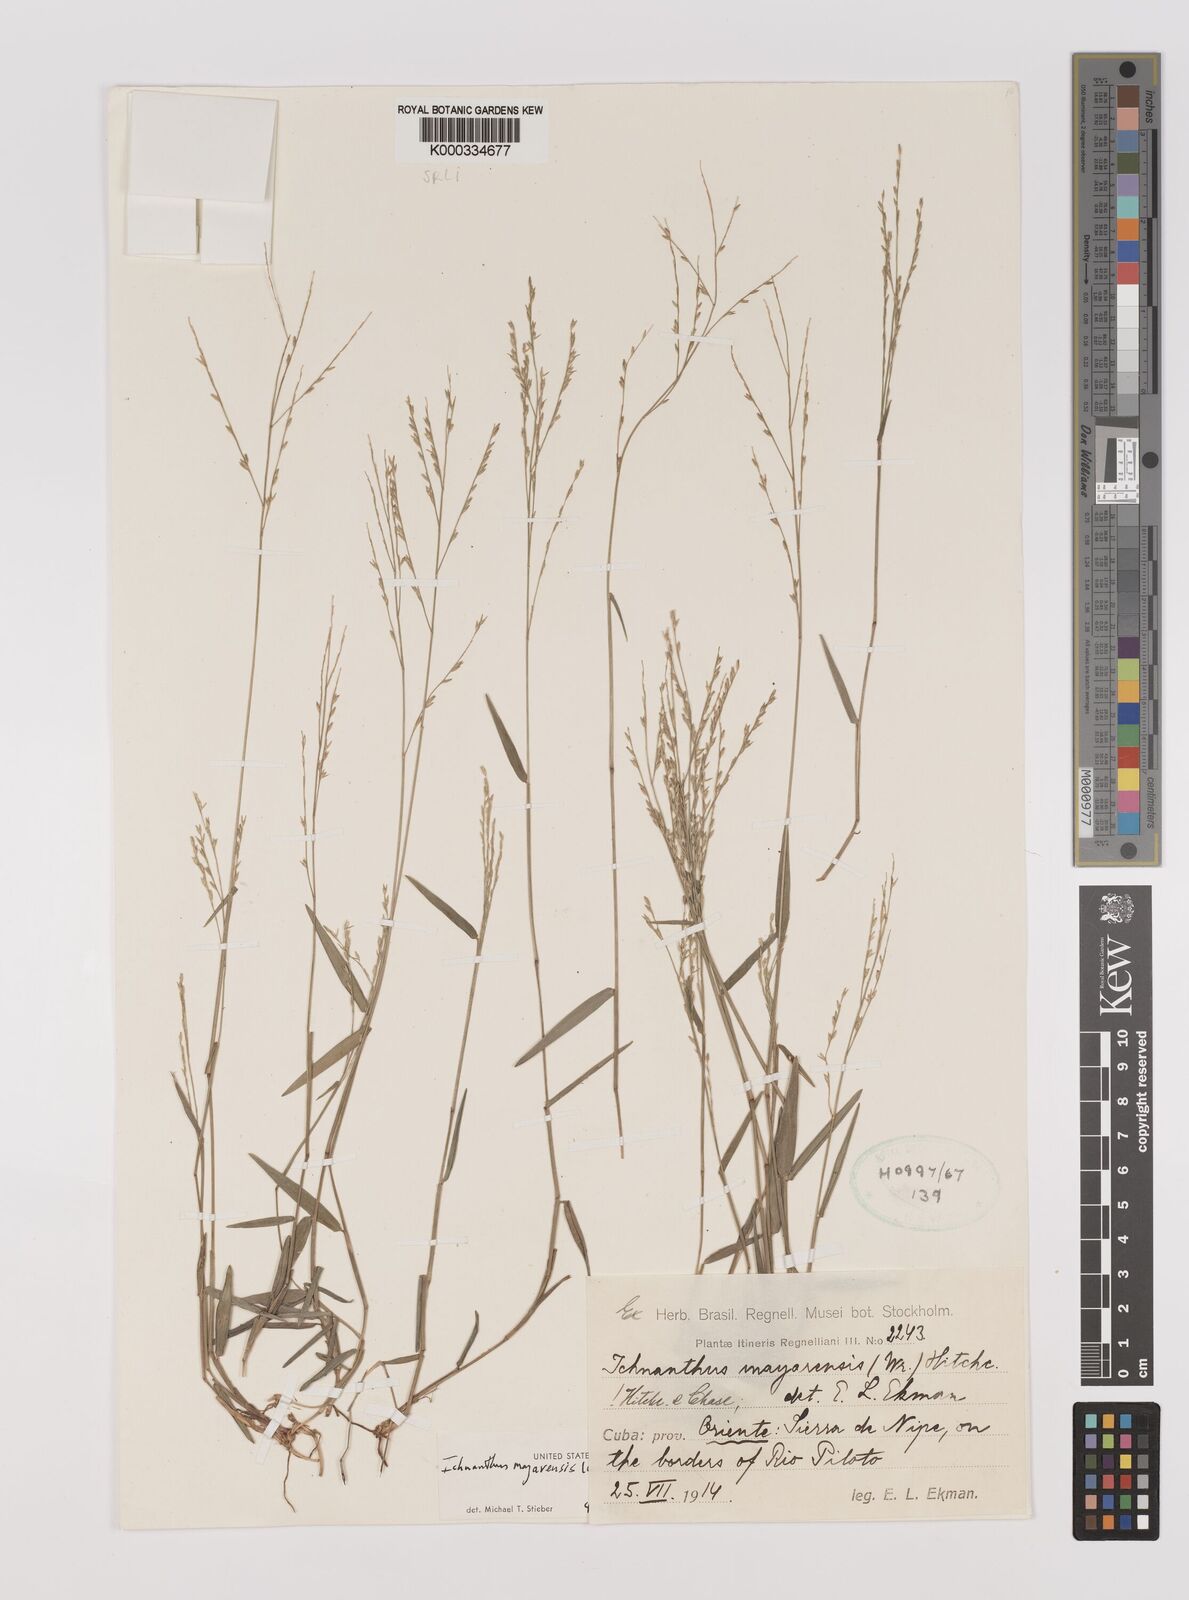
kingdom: Plantae
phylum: Tracheophyta
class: Liliopsida
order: Poales
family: Poaceae
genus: Oedochloa
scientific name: Oedochloa mayarensis
